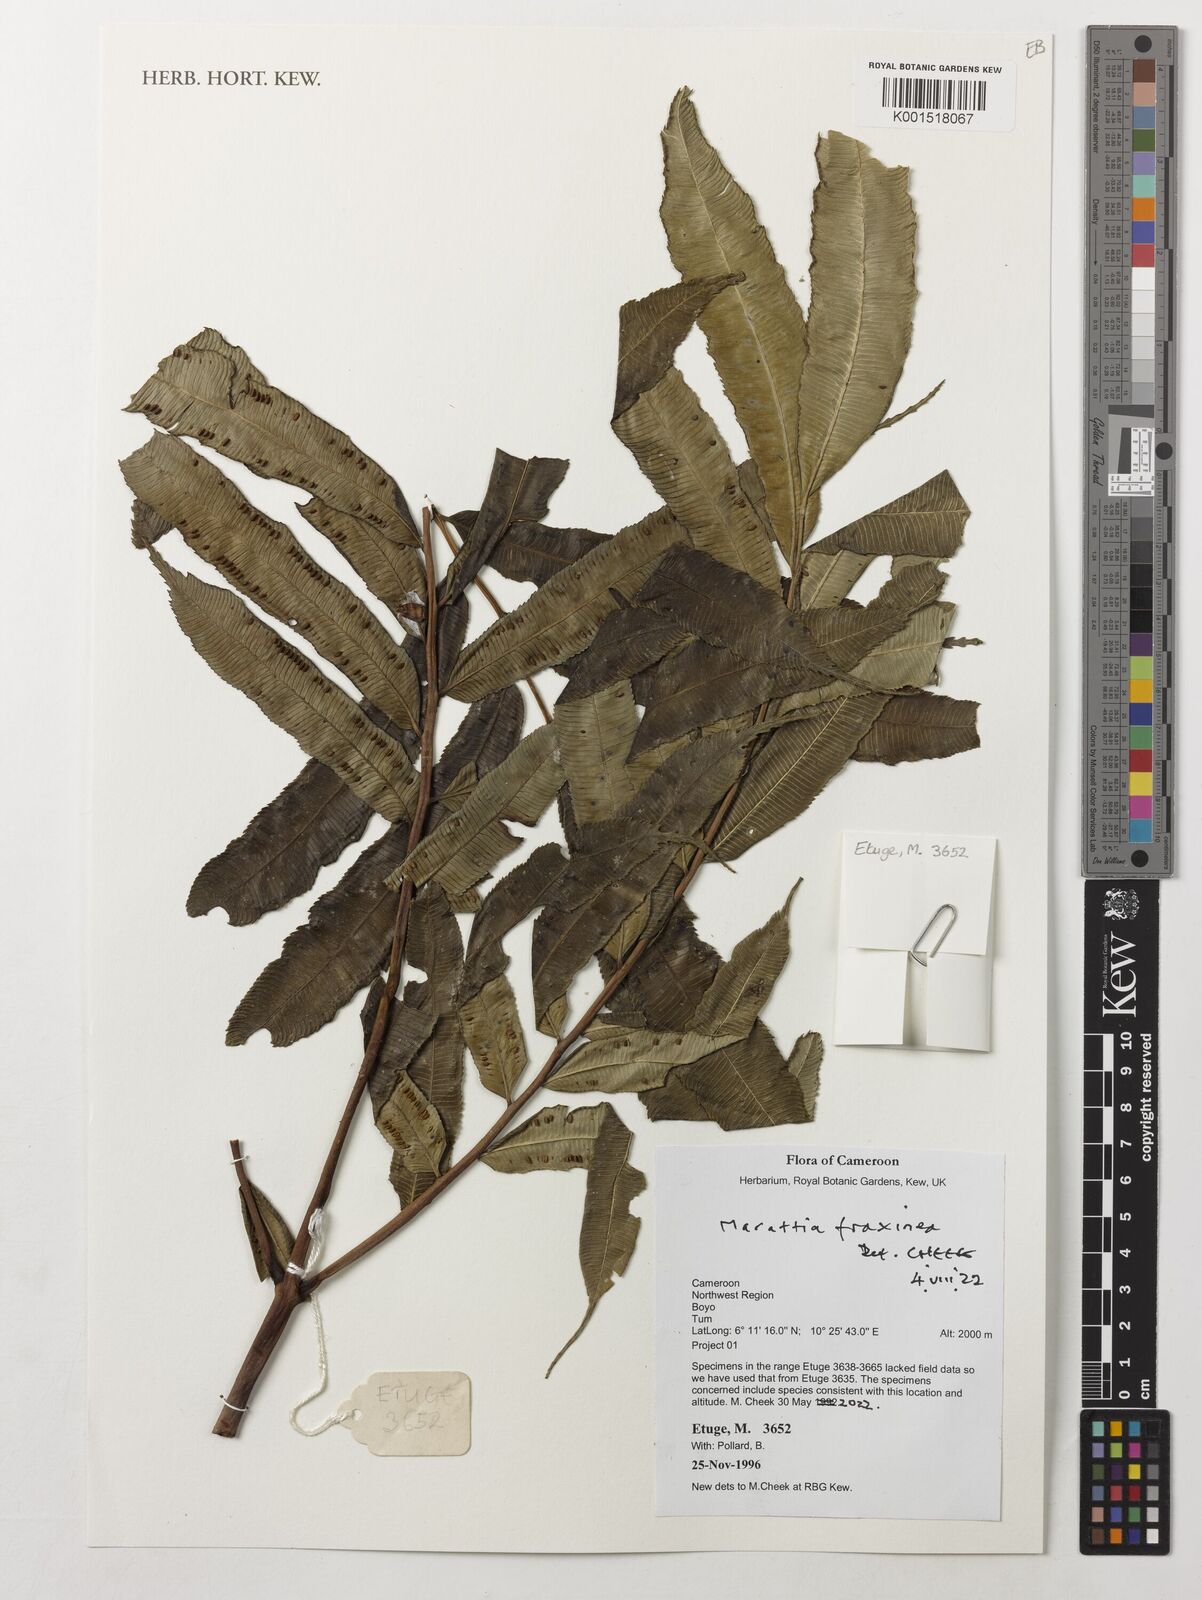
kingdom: Plantae
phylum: Tracheophyta
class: Polypodiopsida
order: Marattiales
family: Marattiaceae
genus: Eupodium
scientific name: Eupodium cicutifolium
